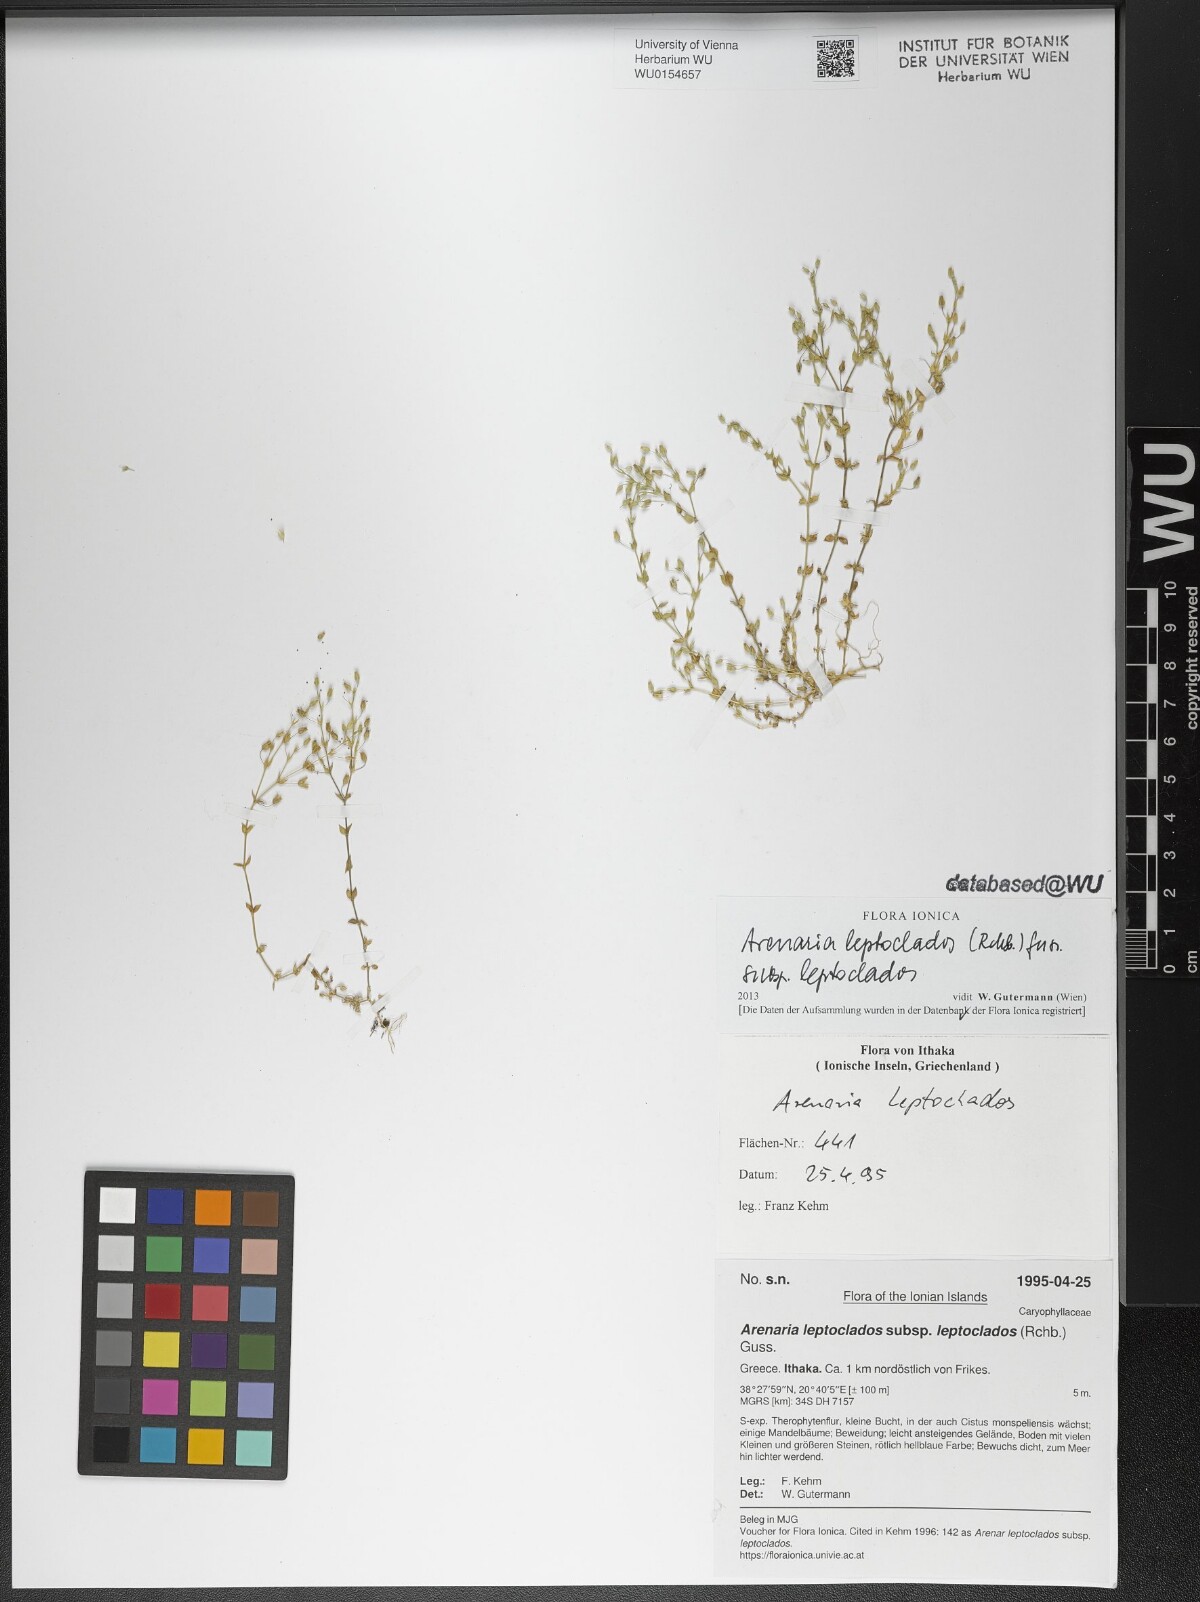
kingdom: Plantae
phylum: Tracheophyta
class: Magnoliopsida
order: Caryophyllales
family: Caryophyllaceae
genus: Arenaria
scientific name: Arenaria leptoclados
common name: Thyme-leaved sandwort
